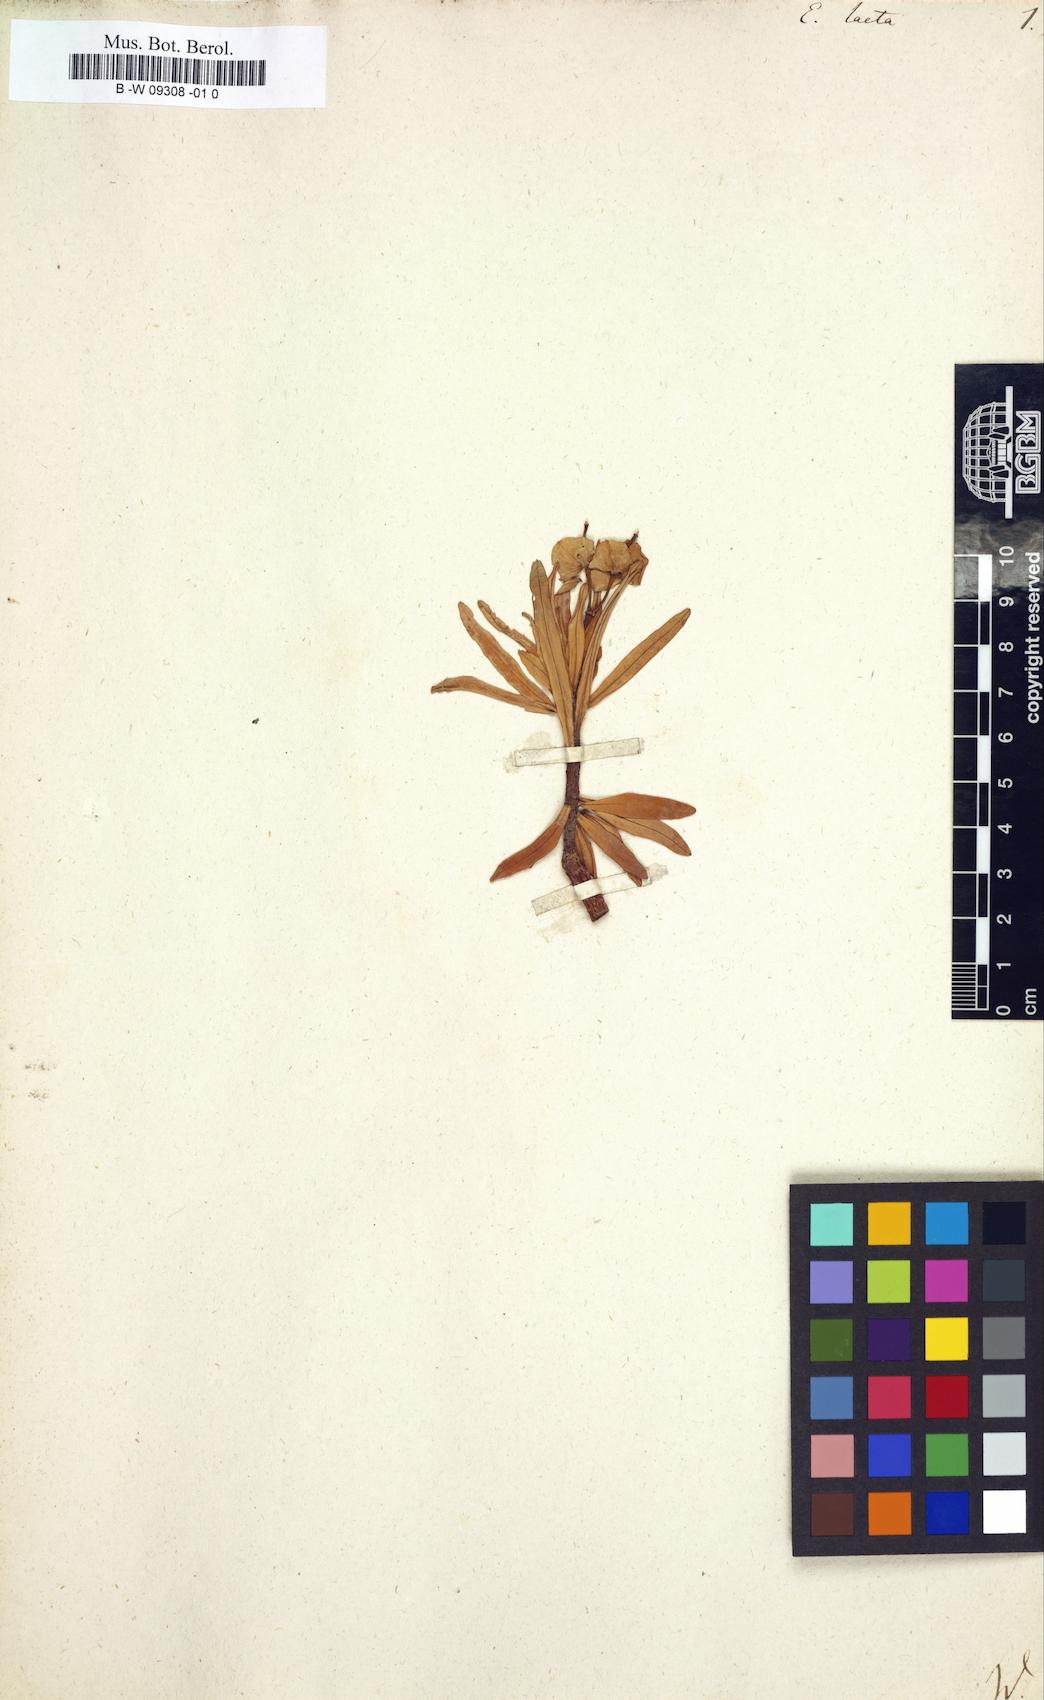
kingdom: Plantae
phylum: Tracheophyta
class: Magnoliopsida
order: Malpighiales
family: Euphorbiaceae
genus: Euphorbia
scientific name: Euphorbia
